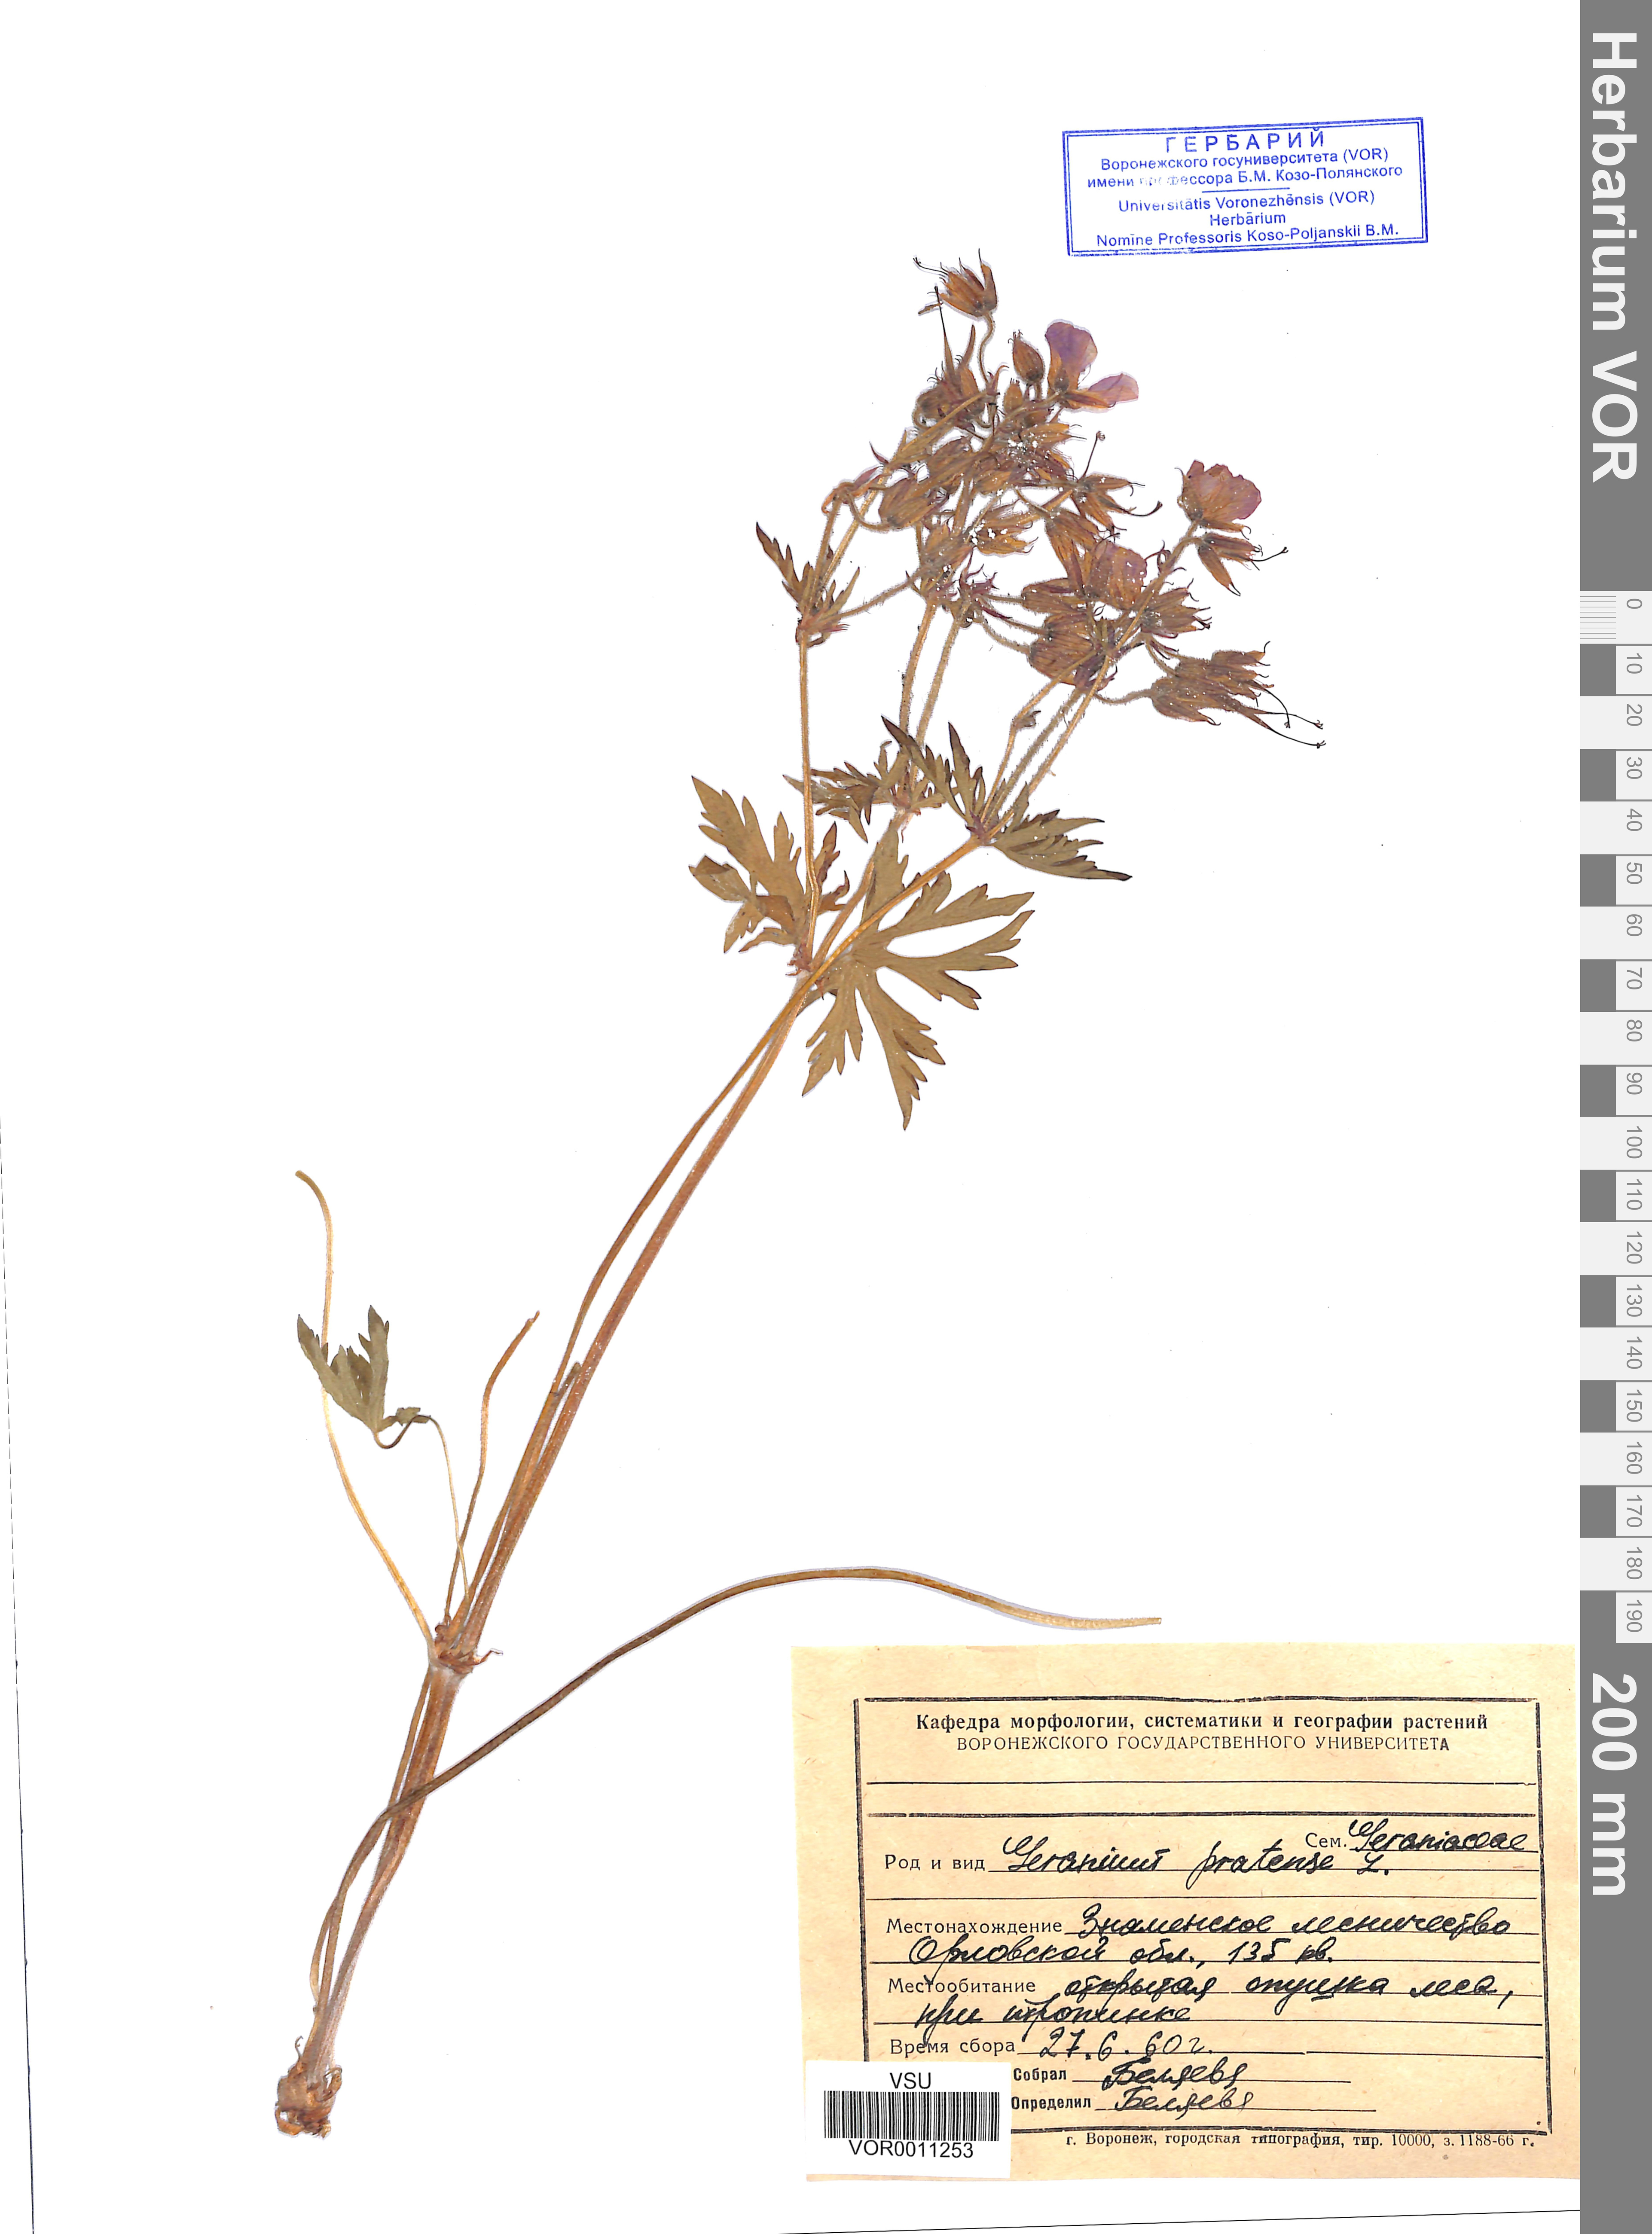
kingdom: Plantae
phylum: Tracheophyta
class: Magnoliopsida
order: Geraniales
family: Geraniaceae
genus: Geranium
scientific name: Geranium pratense
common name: Meadow crane's-bill
